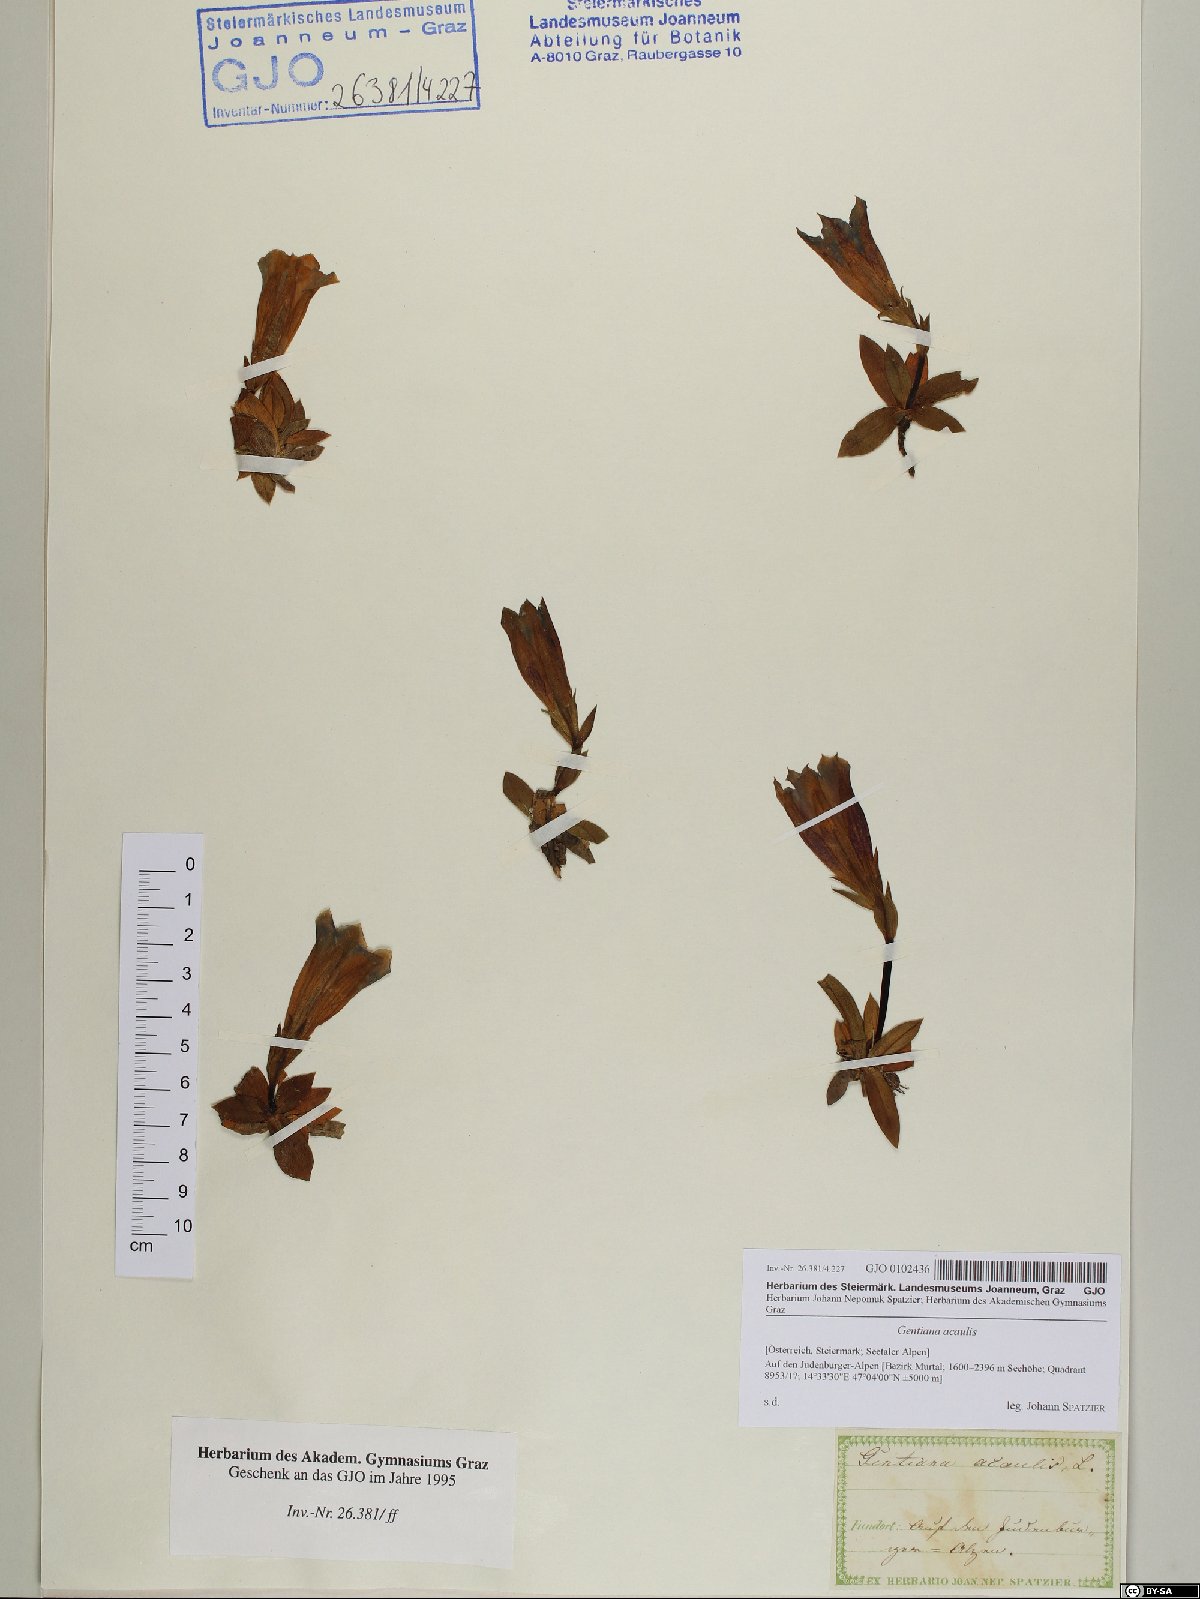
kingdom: Plantae
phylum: Tracheophyta
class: Magnoliopsida
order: Gentianales
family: Gentianaceae
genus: Gentiana
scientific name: Gentiana acaulis
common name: Trumpet gentian
